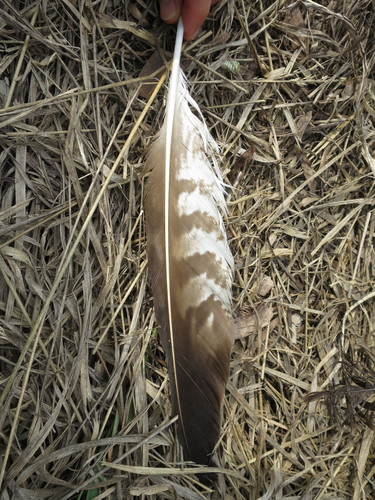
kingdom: Animalia
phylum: Chordata
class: Aves
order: Accipitriformes
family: Accipitridae
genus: Buteo
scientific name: Buteo buteo
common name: Common buzzard
